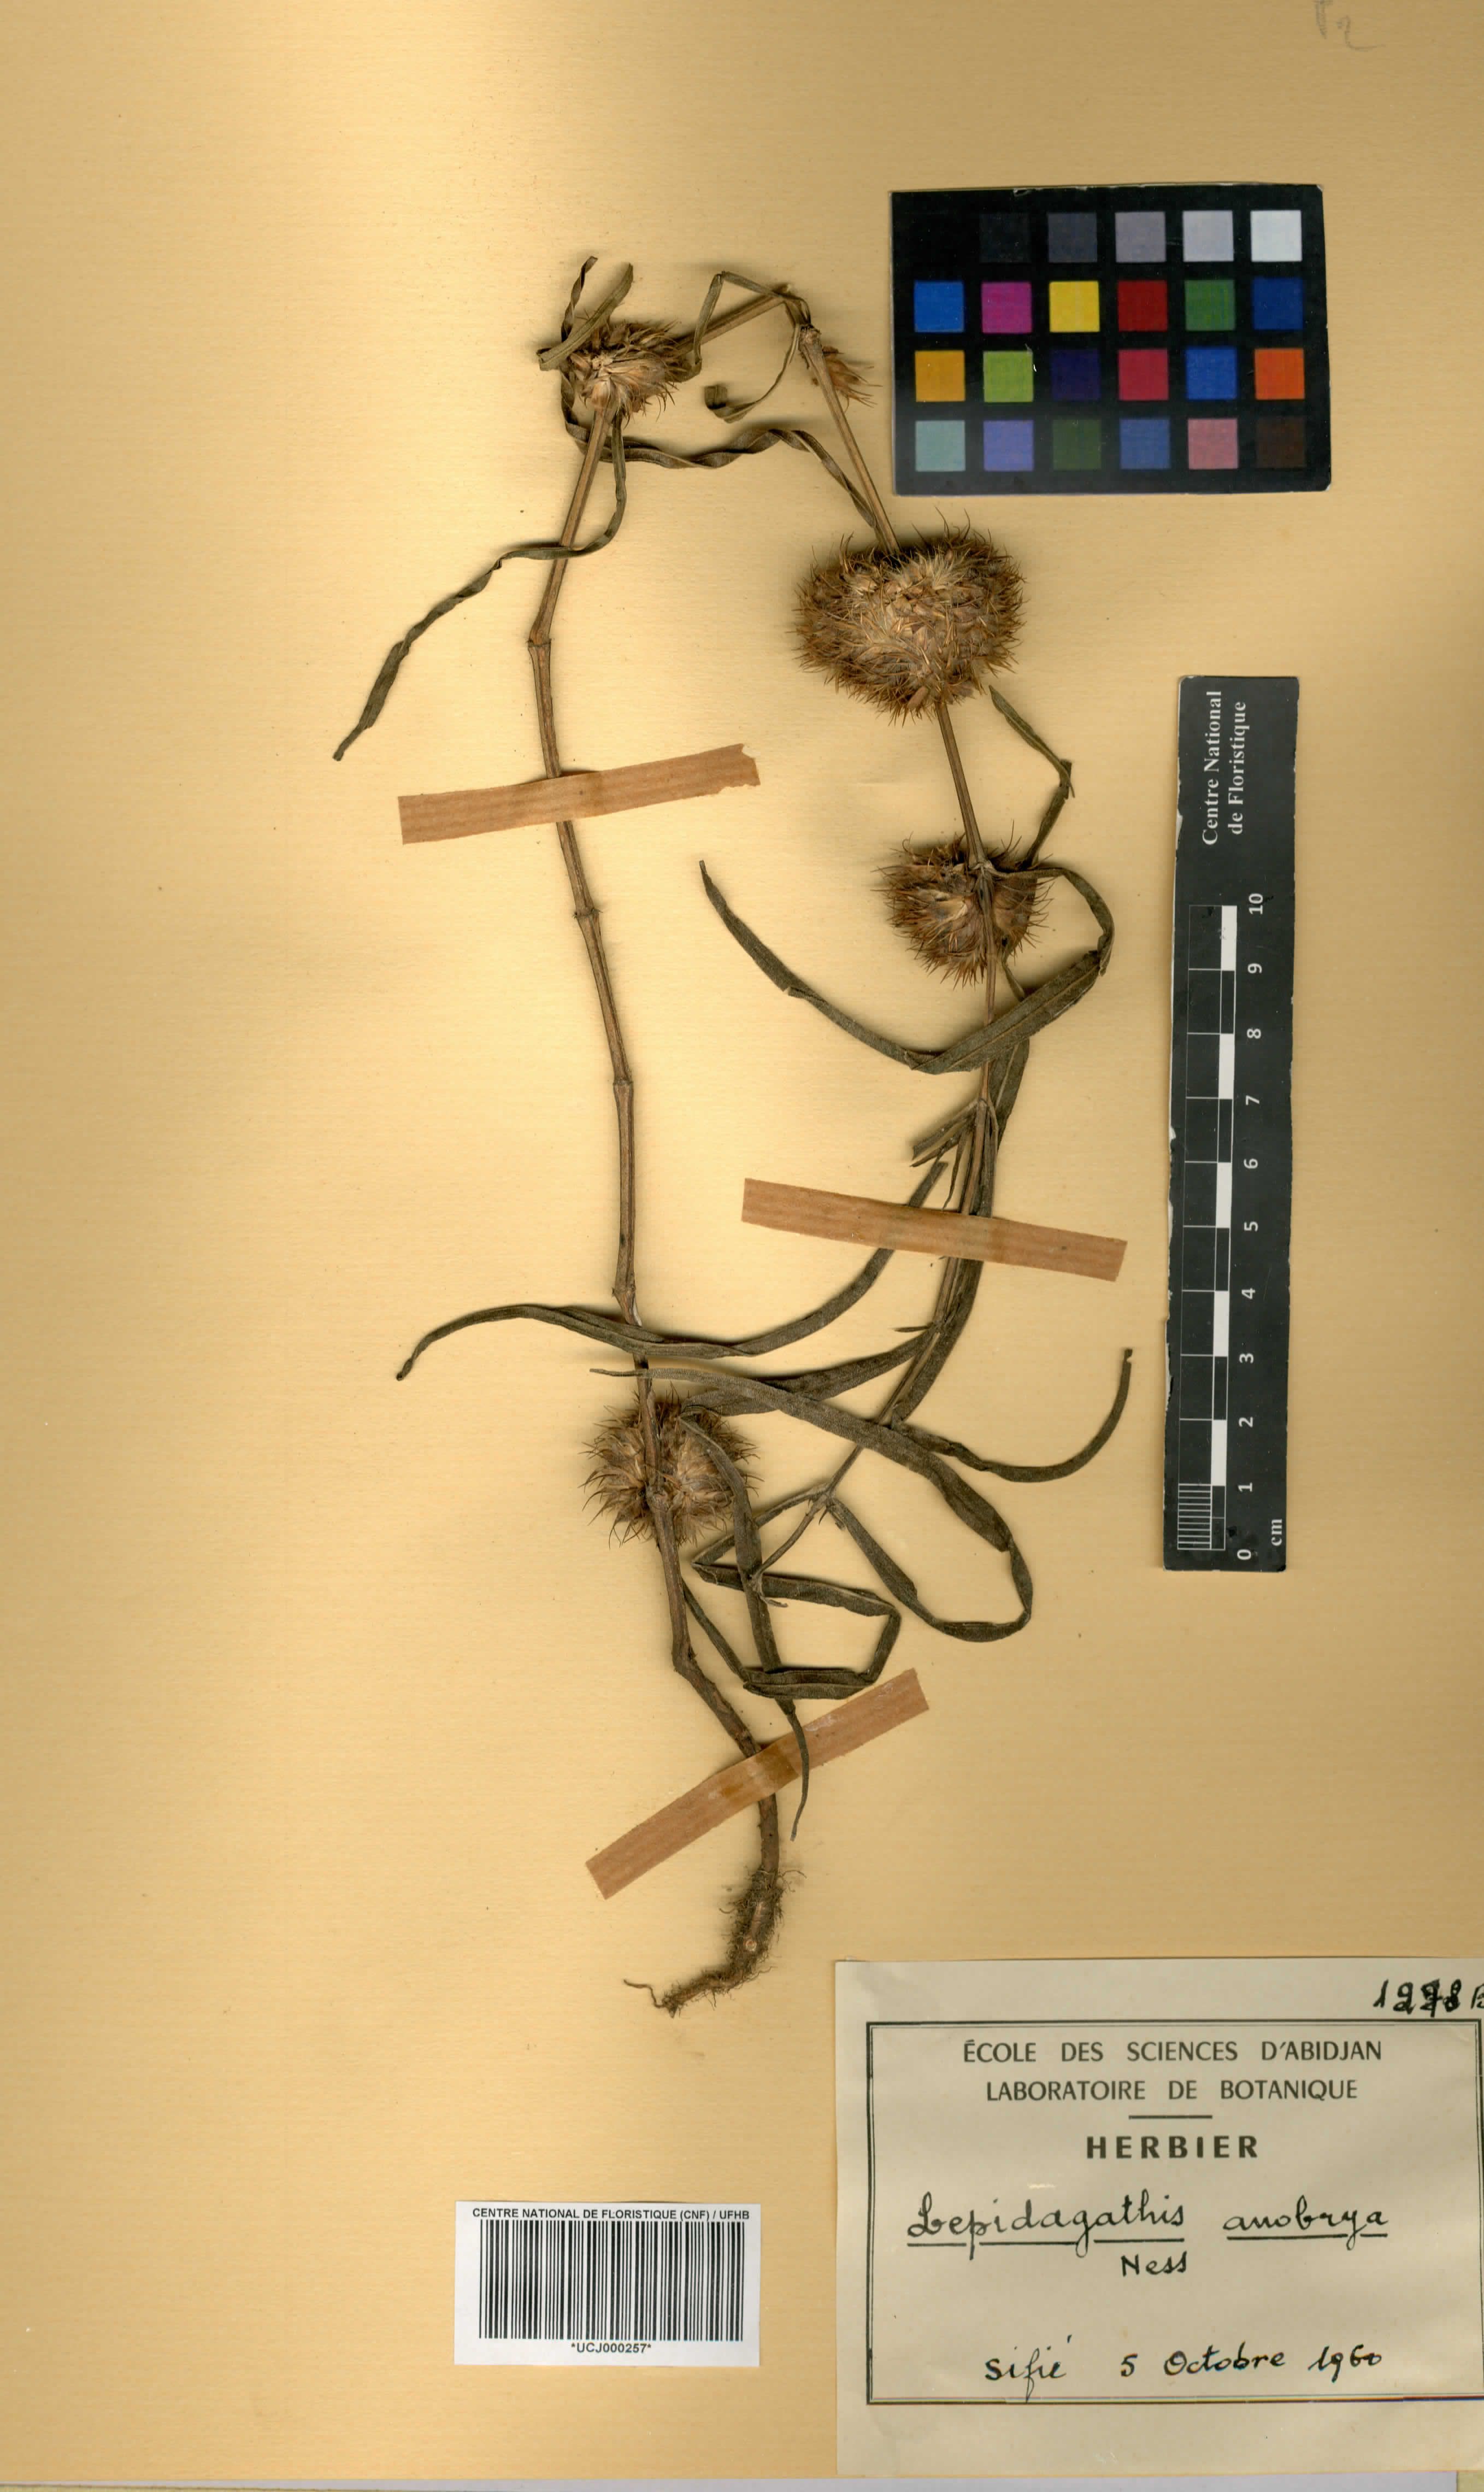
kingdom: Plantae
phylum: Tracheophyta
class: Magnoliopsida
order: Lamiales
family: Acanthaceae
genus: Lepidagathis
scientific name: Lepidagathis anobrya
